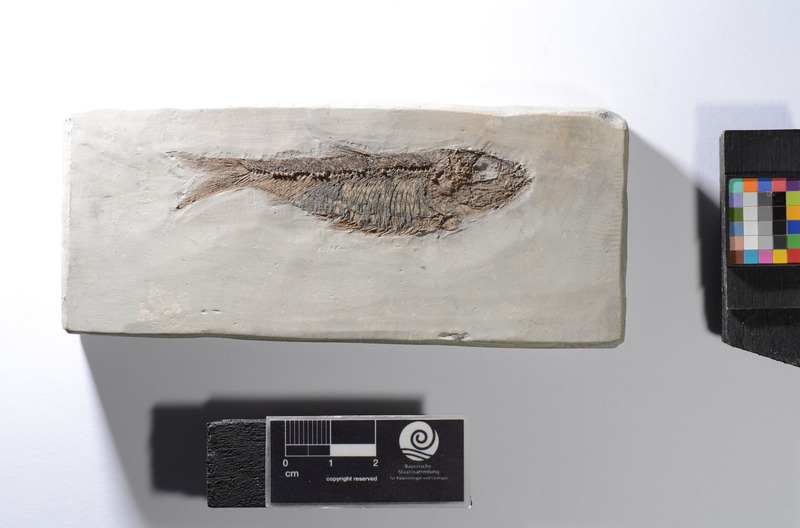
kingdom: Animalia
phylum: Chordata
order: Clupeiformes
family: Clupeidae
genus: Clupeonella
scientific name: Clupeonella
